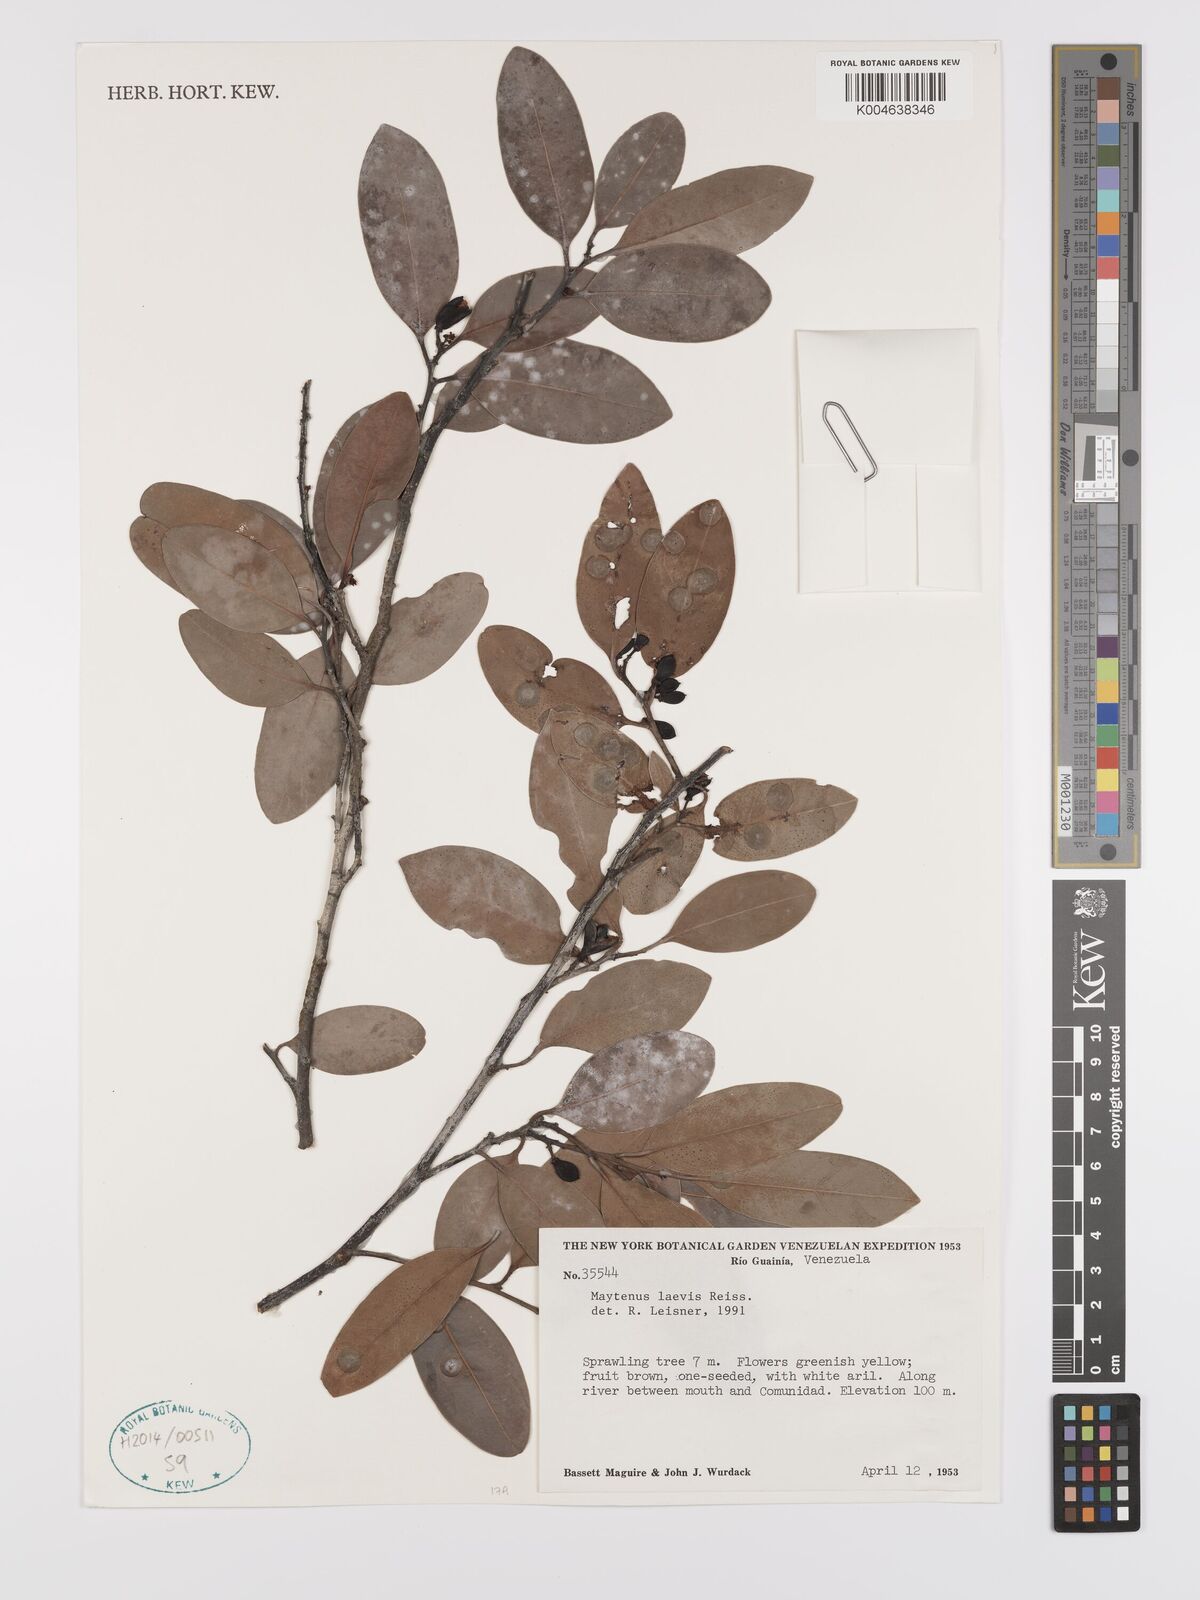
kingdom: Plantae
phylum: Tracheophyta
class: Magnoliopsida
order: Celastrales
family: Celastraceae
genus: Monteverdia
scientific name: Monteverdia laevis
